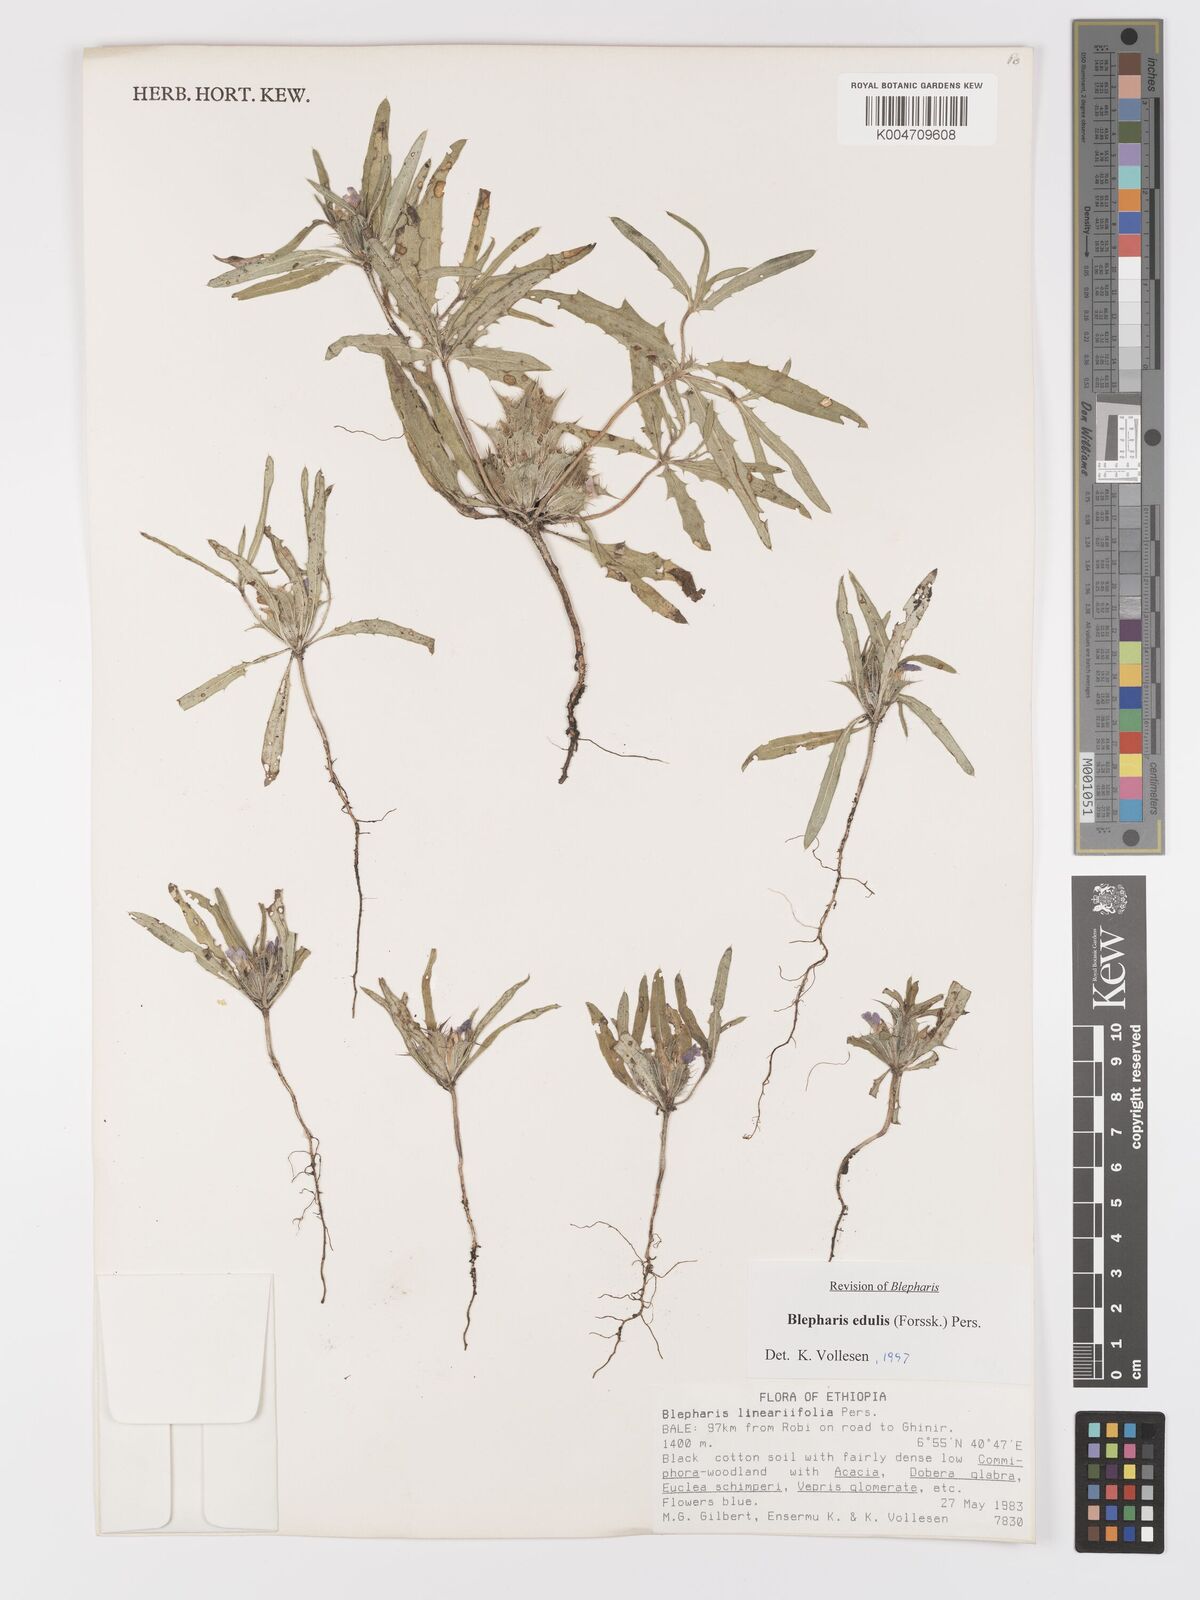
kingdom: Plantae
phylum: Tracheophyta
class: Magnoliopsida
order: Lamiales
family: Acanthaceae
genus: Blepharis
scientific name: Blepharis edulis
